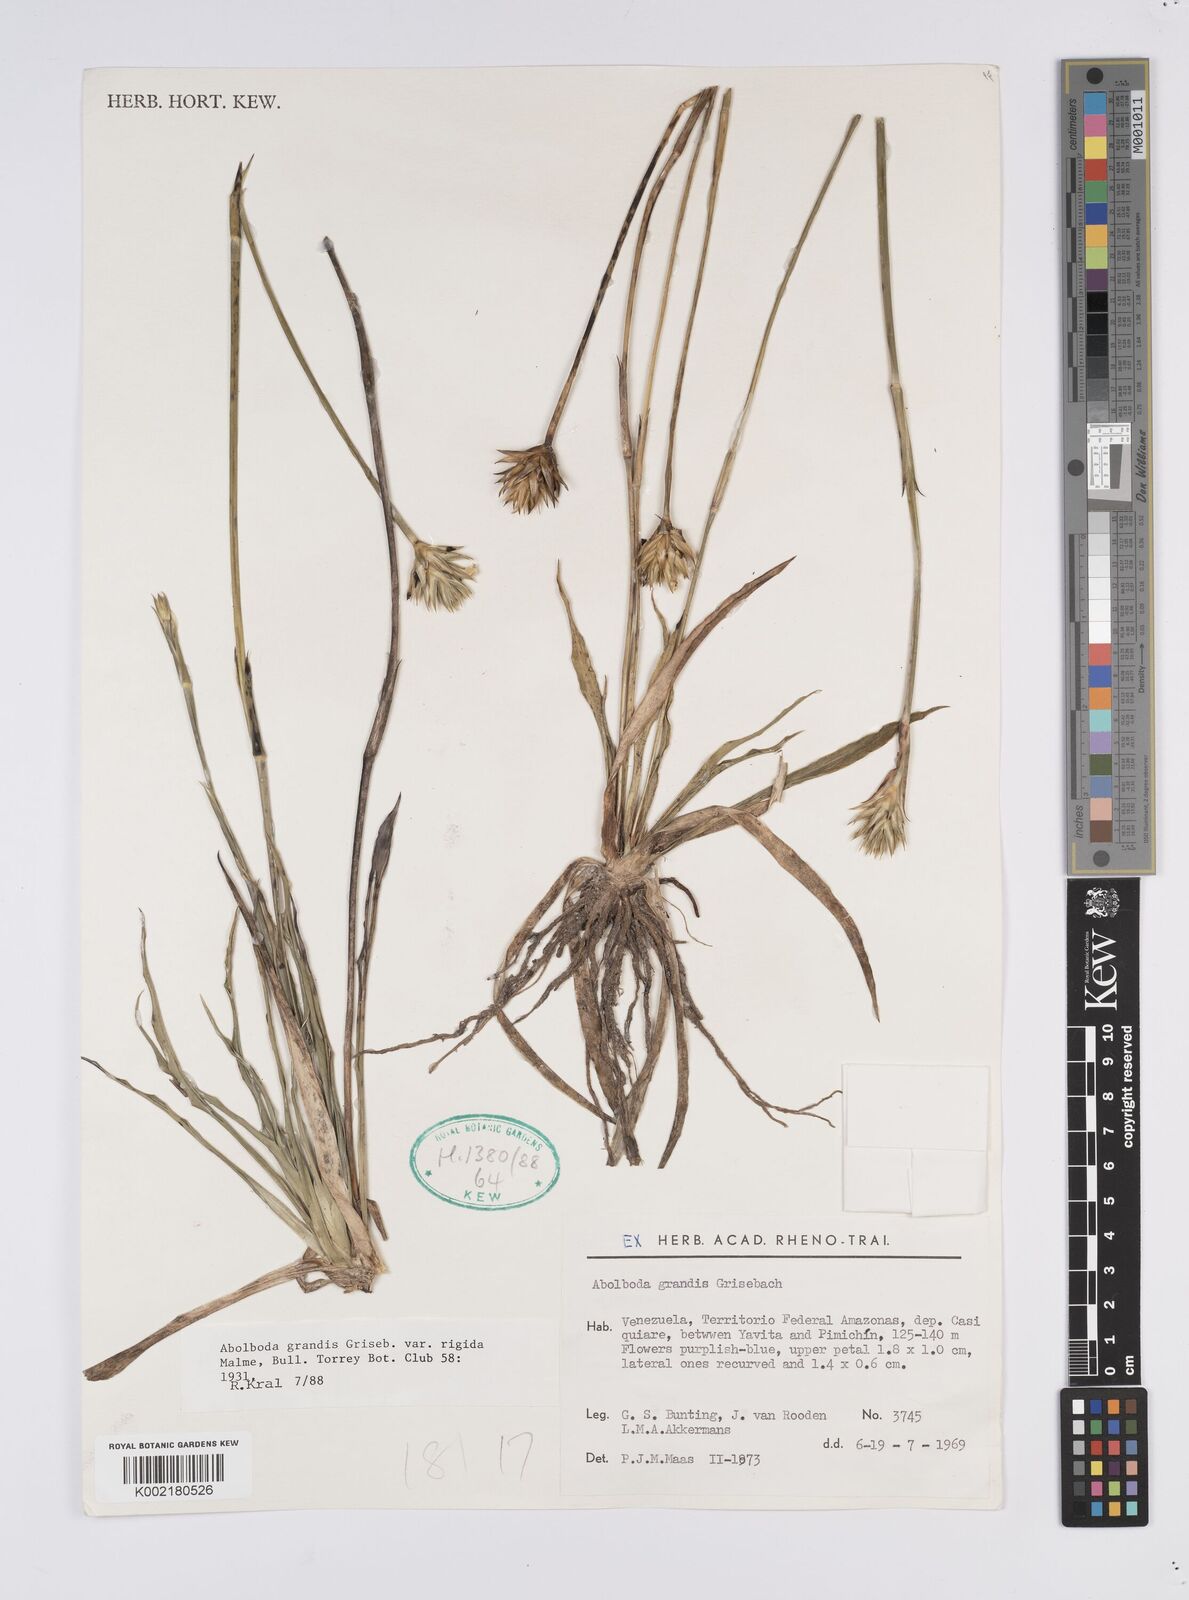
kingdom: Plantae
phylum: Tracheophyta
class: Liliopsida
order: Poales
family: Xyridaceae
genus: Abolboda
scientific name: Abolboda grandis
